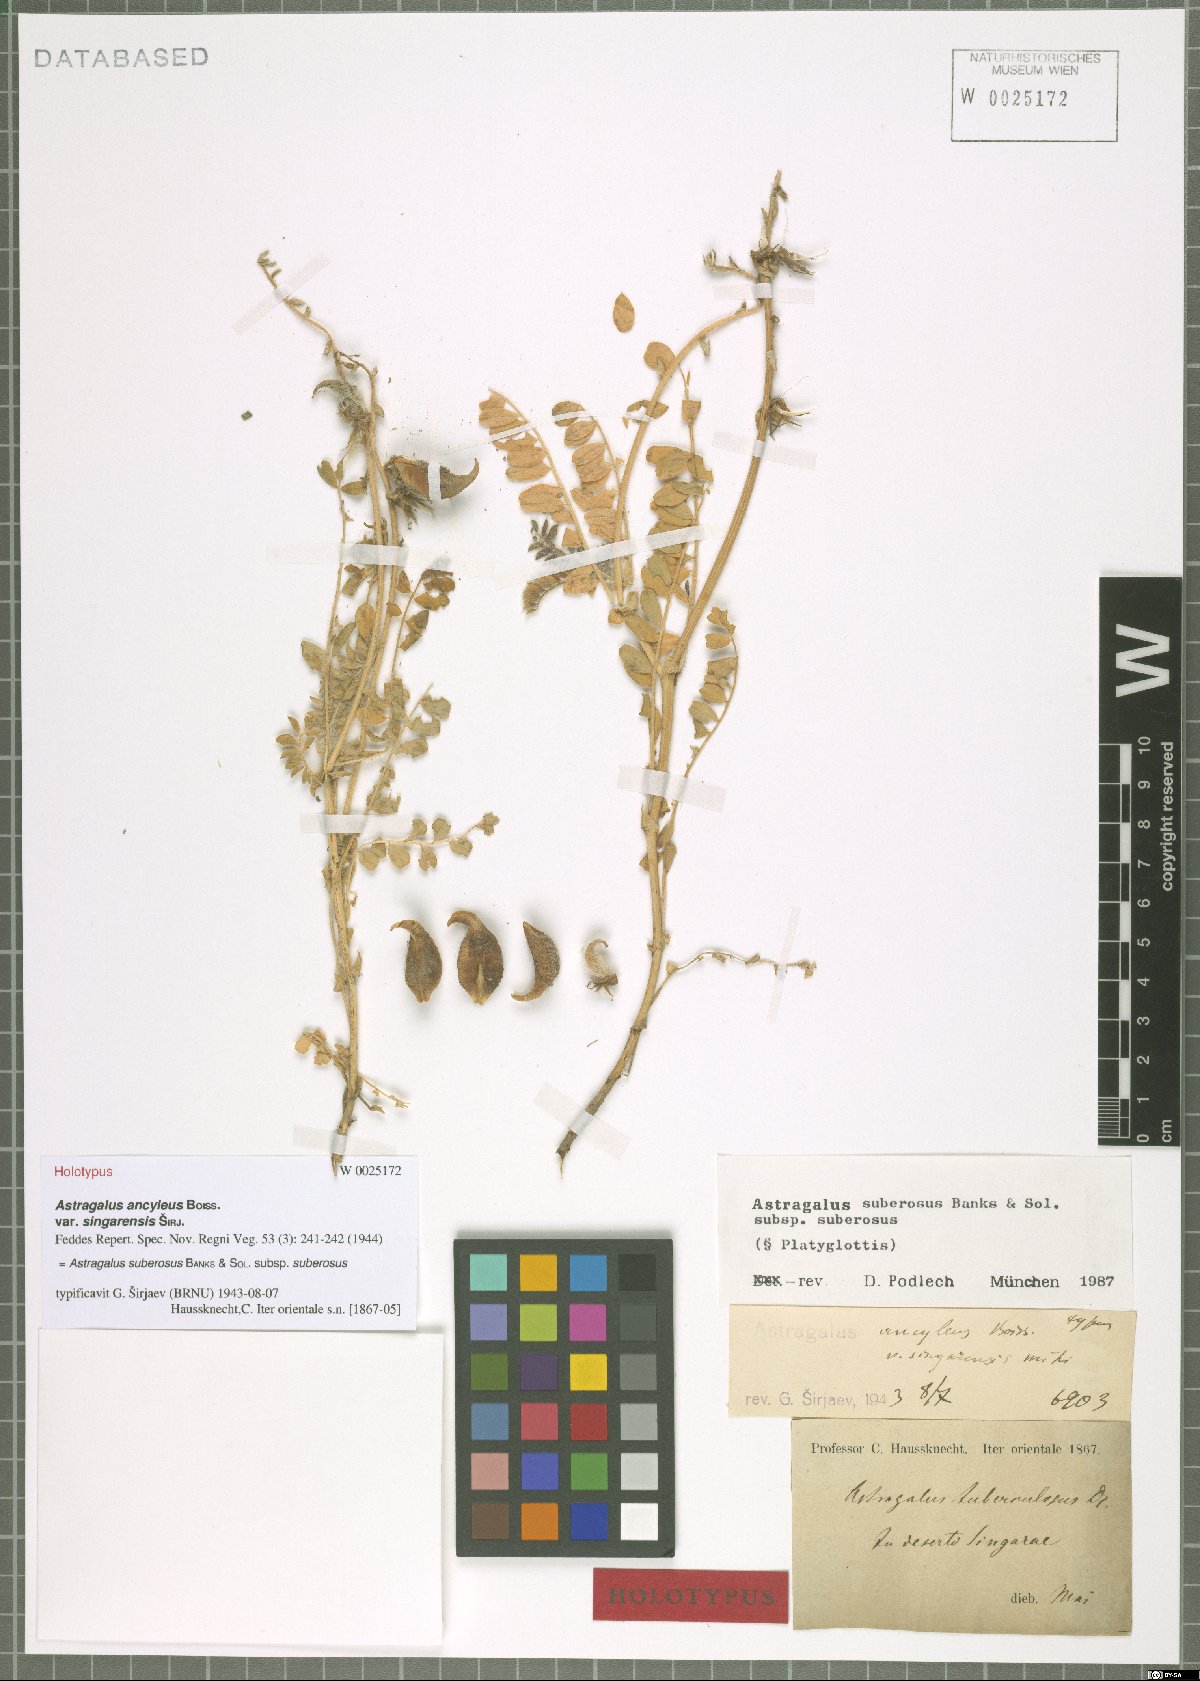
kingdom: Plantae
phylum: Tracheophyta
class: Magnoliopsida
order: Fabales
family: Fabaceae
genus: Astragalus
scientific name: Astragalus suberosus
